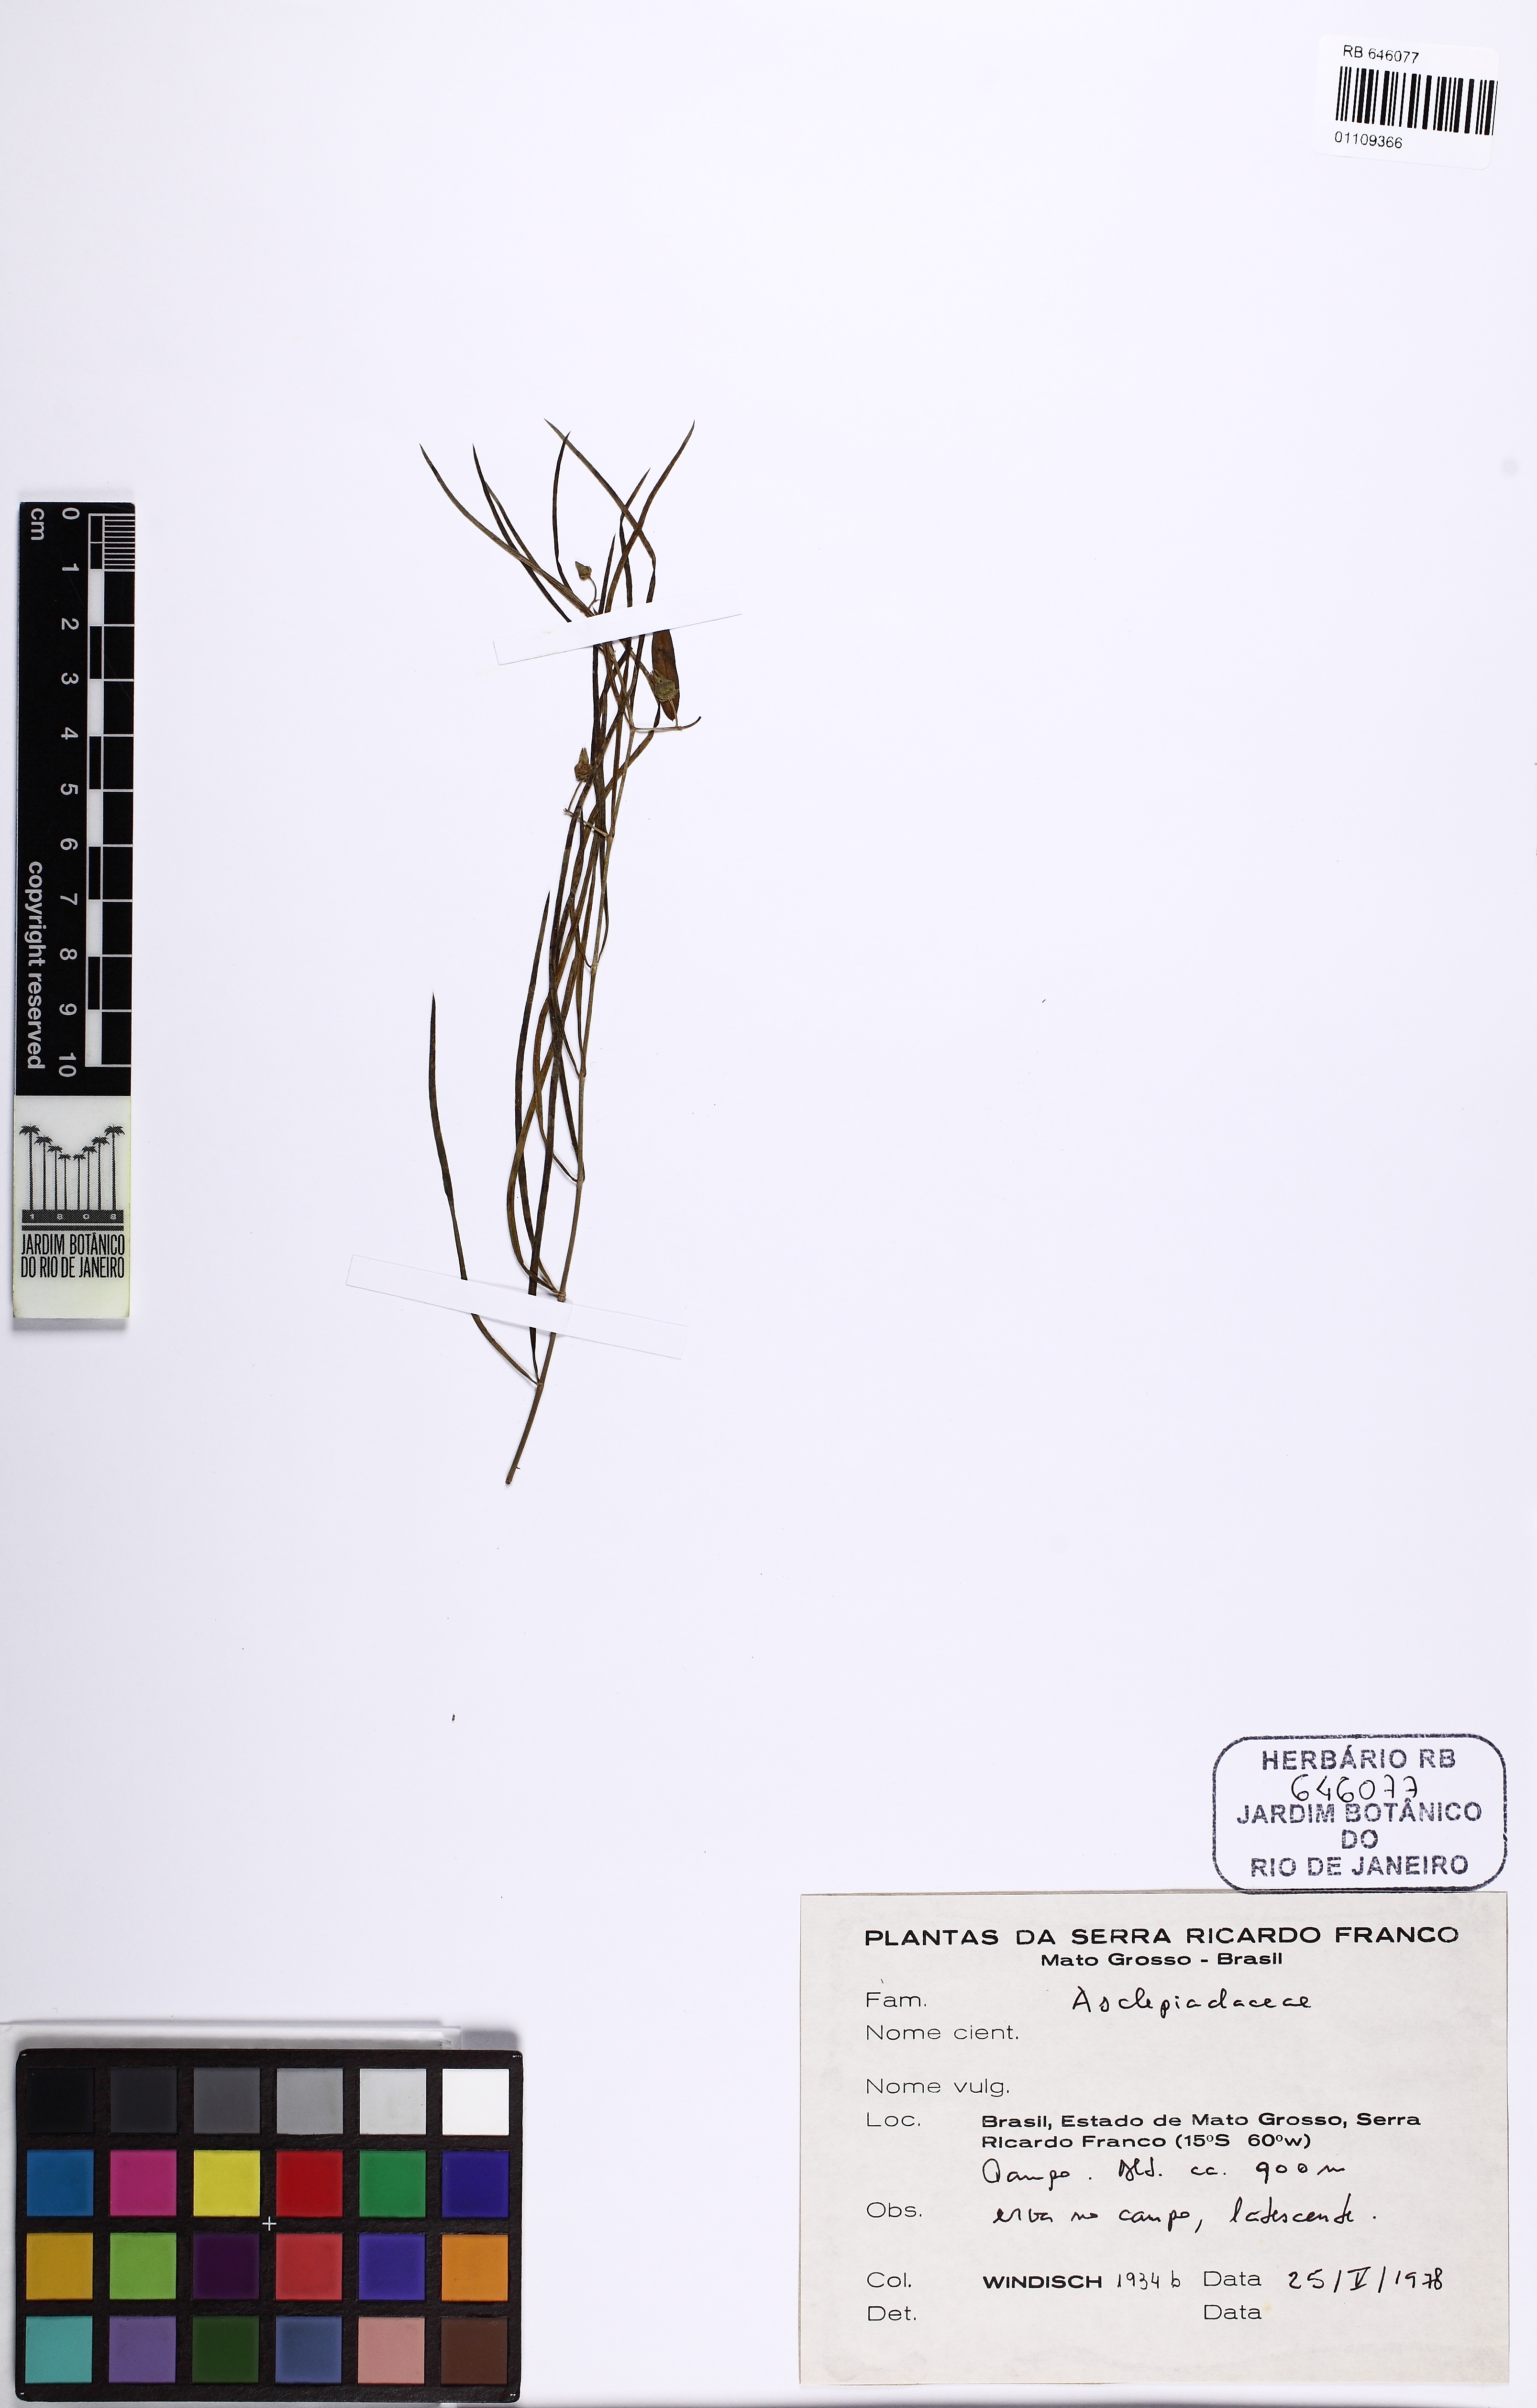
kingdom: Plantae
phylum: Tracheophyta
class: Magnoliopsida
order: Gentianales
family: Apocynaceae
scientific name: Apocynaceae
